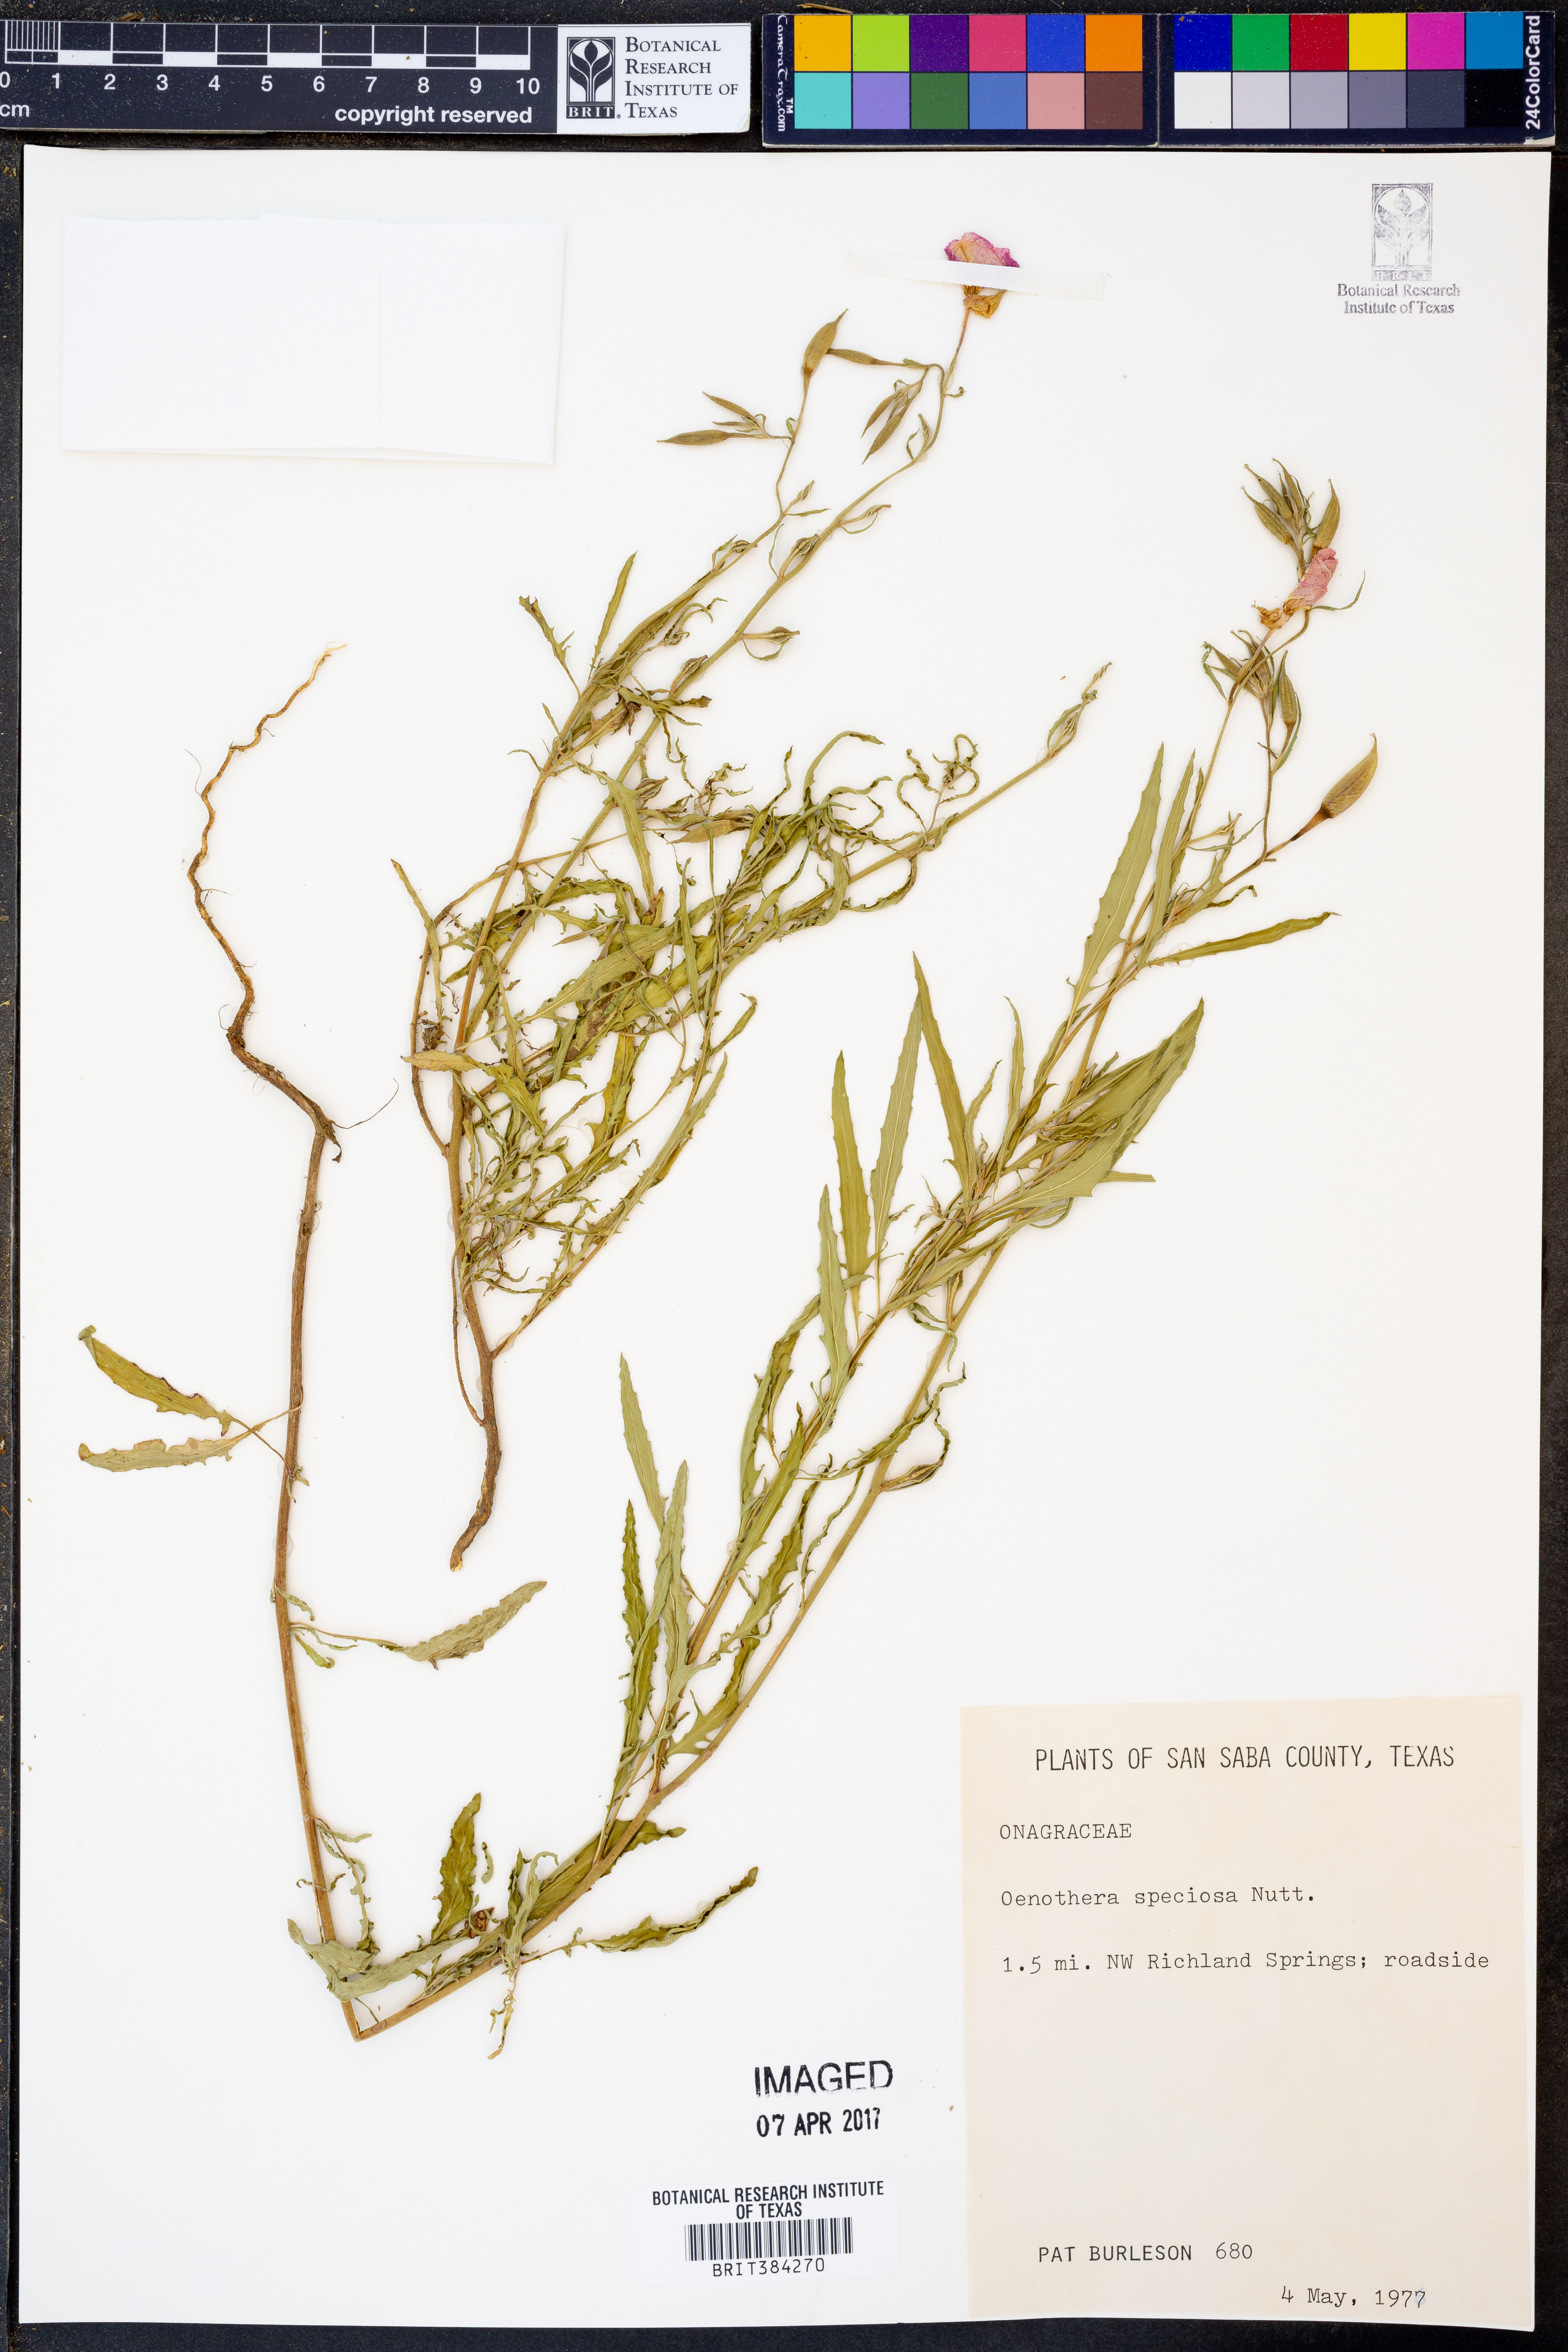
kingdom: Plantae
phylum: Tracheophyta
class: Magnoliopsida
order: Myrtales
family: Onagraceae
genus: Oenothera
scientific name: Oenothera speciosa
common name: White evening-primrose
